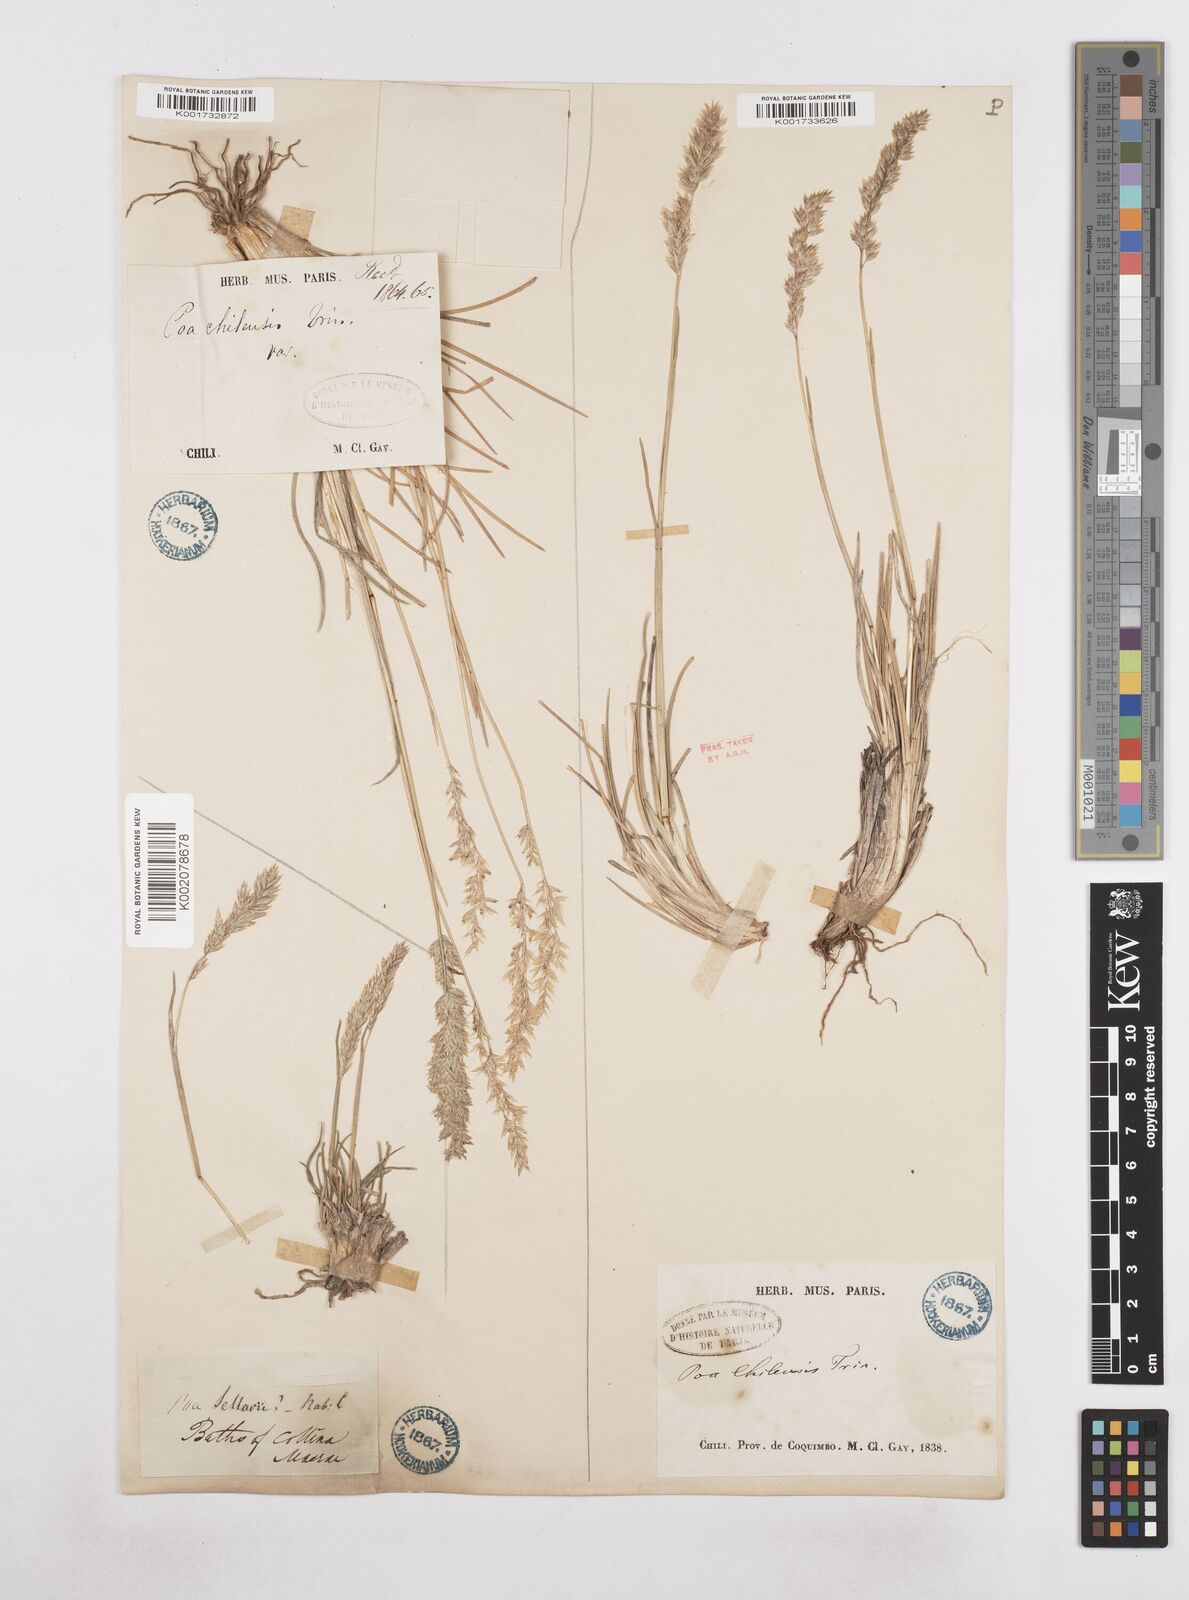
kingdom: Plantae
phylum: Tracheophyta
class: Liliopsida
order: Poales
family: Poaceae
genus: Poa
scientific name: Poa spiciformis
